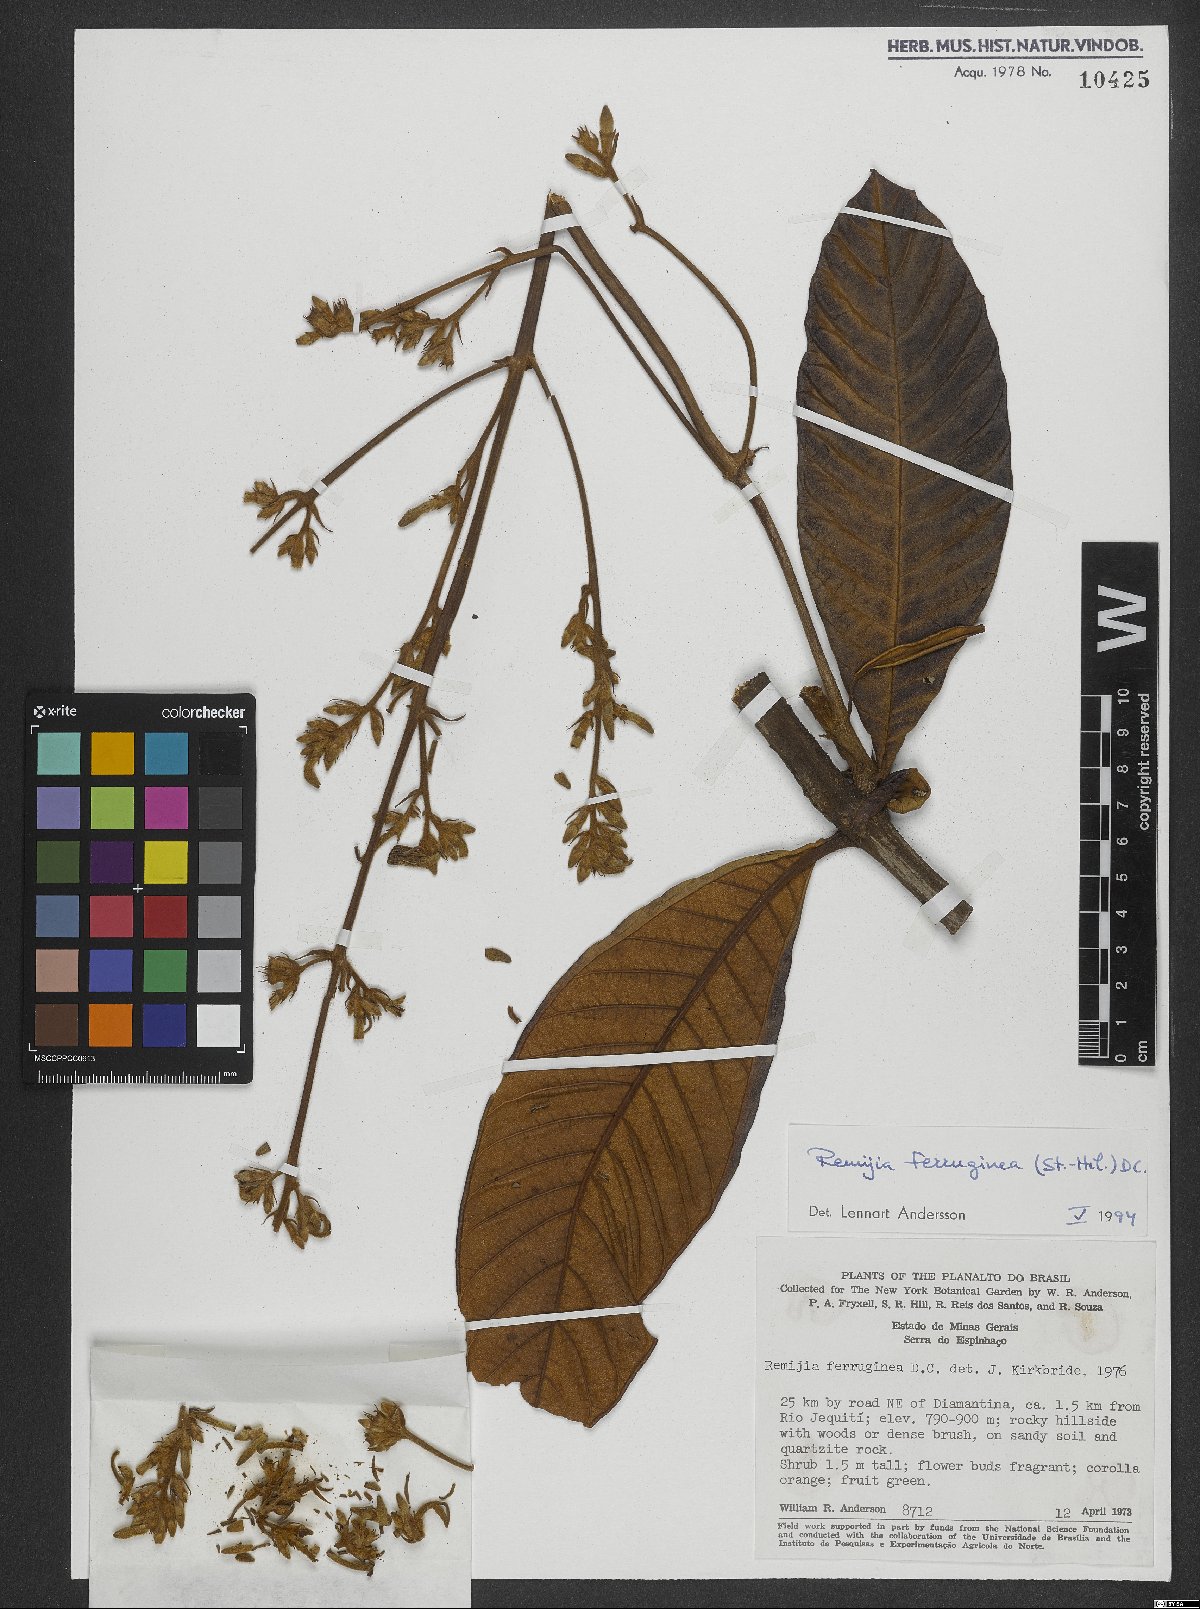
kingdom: Plantae
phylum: Tracheophyta
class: Magnoliopsida
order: Gentianales
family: Rubiaceae
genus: Remijia
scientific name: Remijia ferruginea
